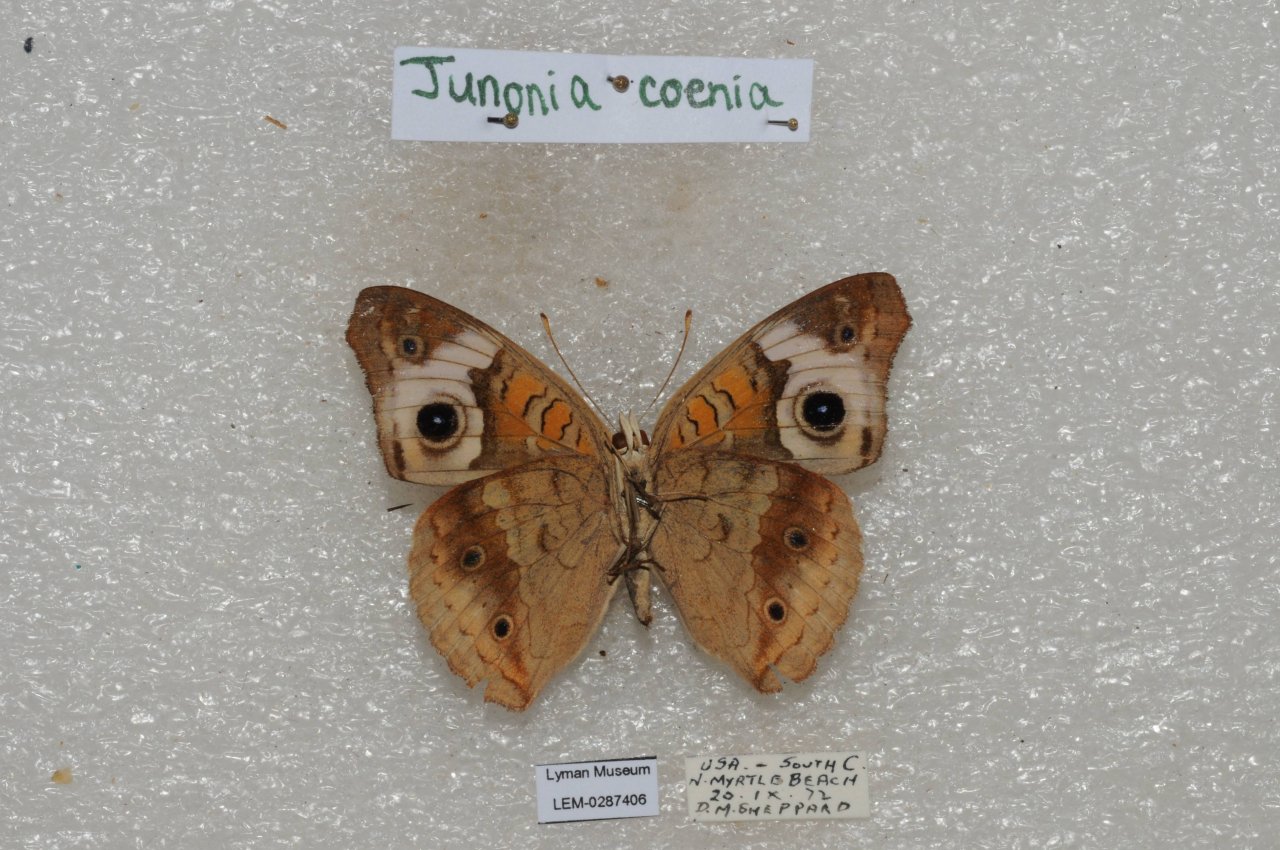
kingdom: Animalia
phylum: Arthropoda
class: Insecta
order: Lepidoptera
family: Nymphalidae
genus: Junonia
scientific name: Junonia coenia
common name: Common Buckeye
